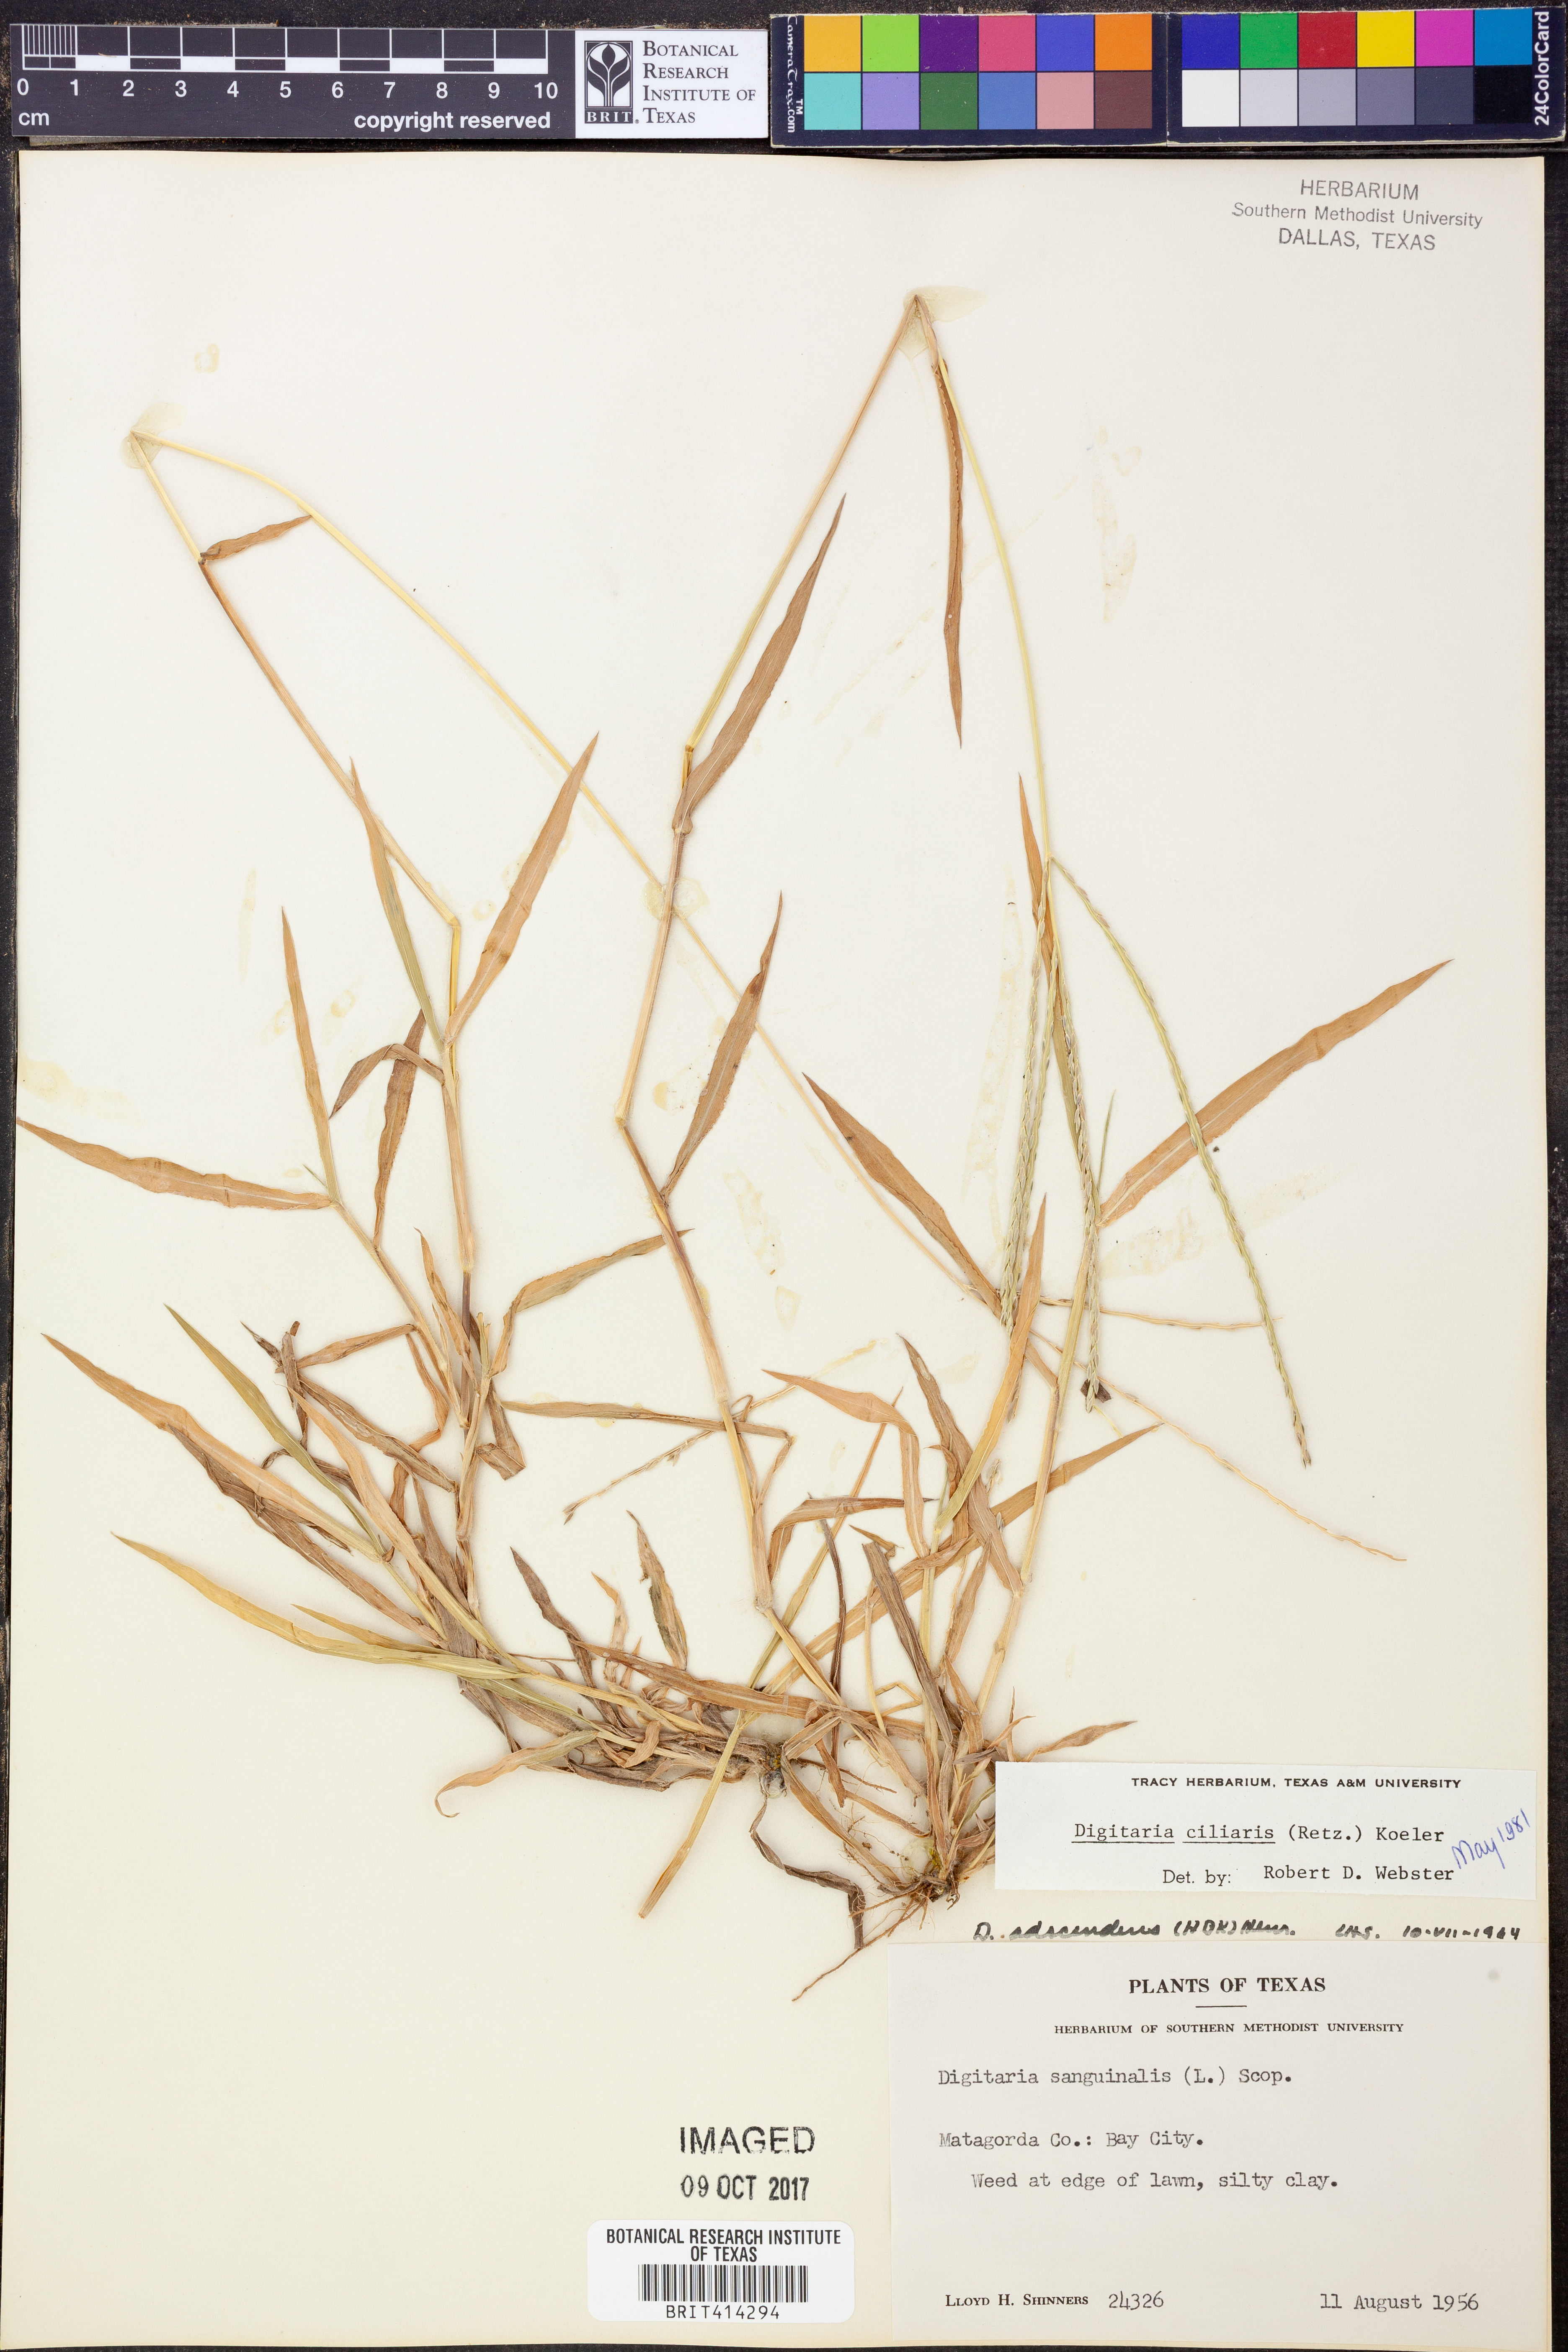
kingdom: Plantae
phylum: Tracheophyta
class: Liliopsida
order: Poales
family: Poaceae
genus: Digitaria
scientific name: Digitaria ciliaris
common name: Tropical finger-grass
